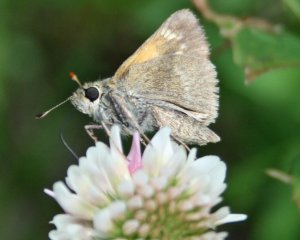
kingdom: Animalia
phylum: Arthropoda
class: Insecta
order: Lepidoptera
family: Hesperiidae
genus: Polites
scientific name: Polites themistocles
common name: Tawny-edged Skipper
